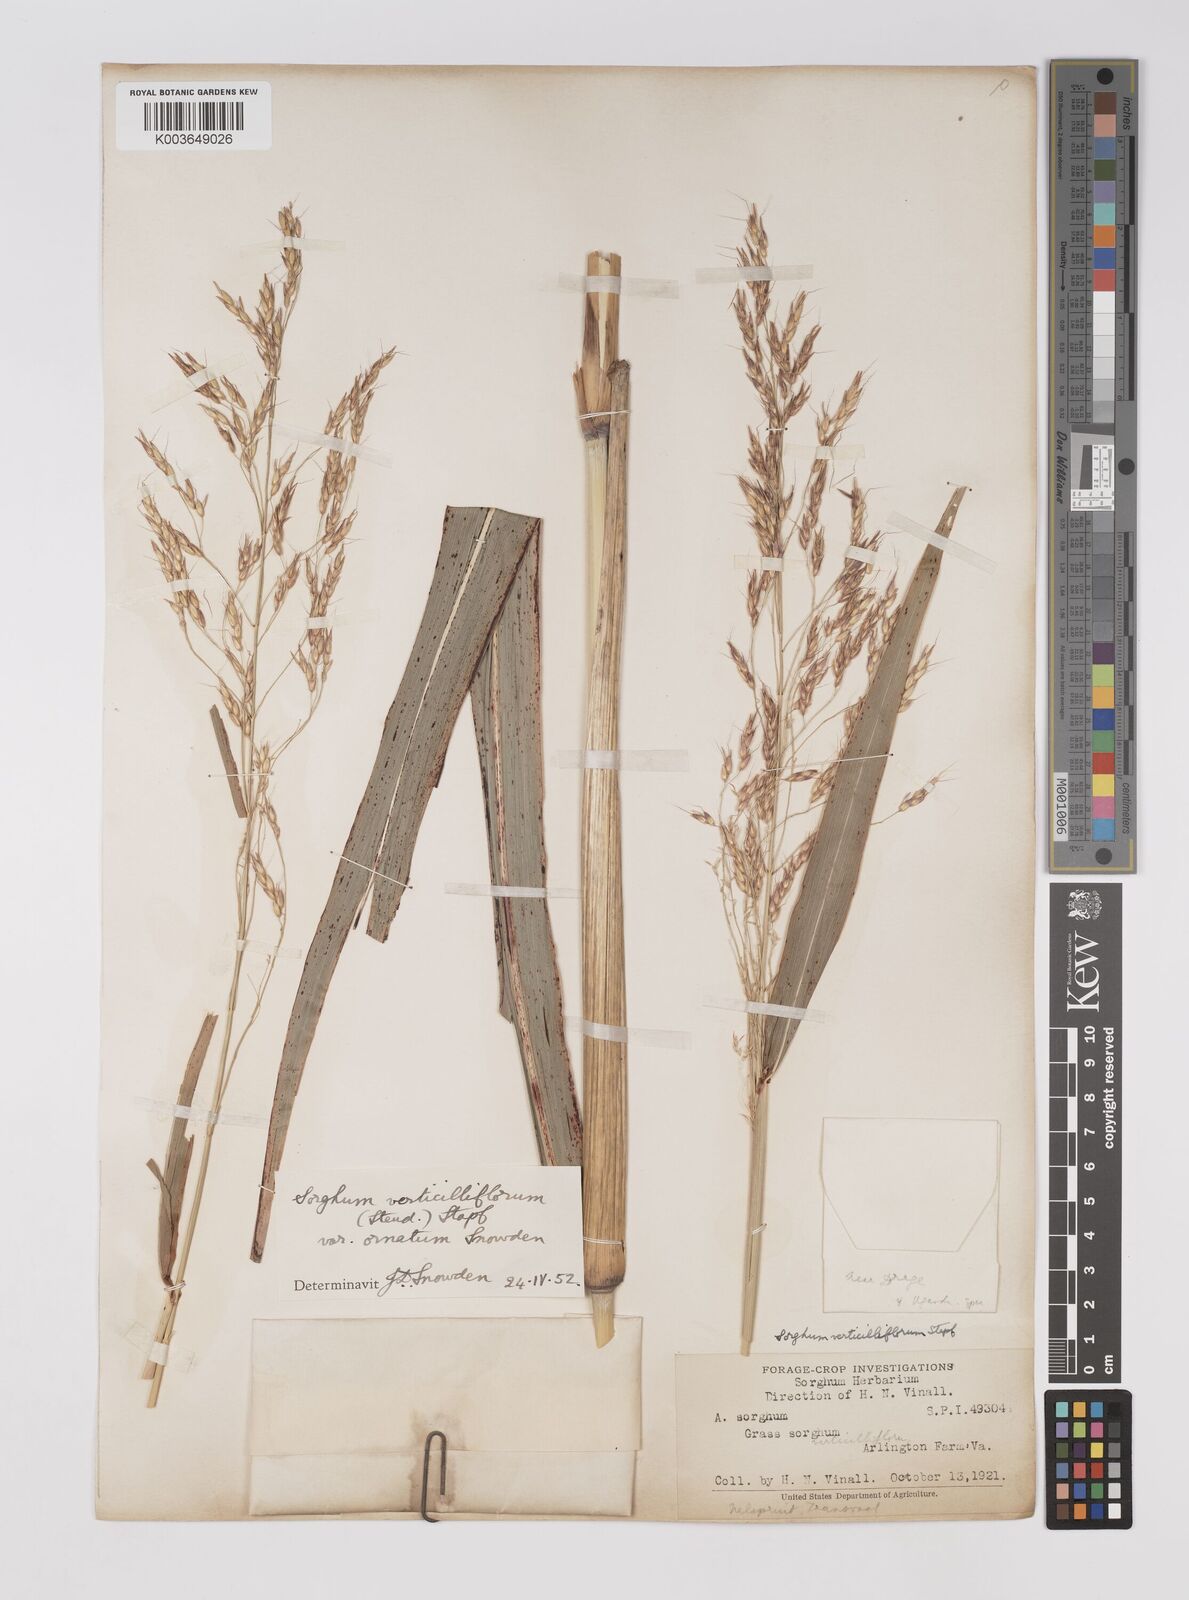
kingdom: Plantae
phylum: Tracheophyta
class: Liliopsida
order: Poales
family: Poaceae
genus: Sorghum
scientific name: Sorghum arundinaceum
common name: Sorghum
